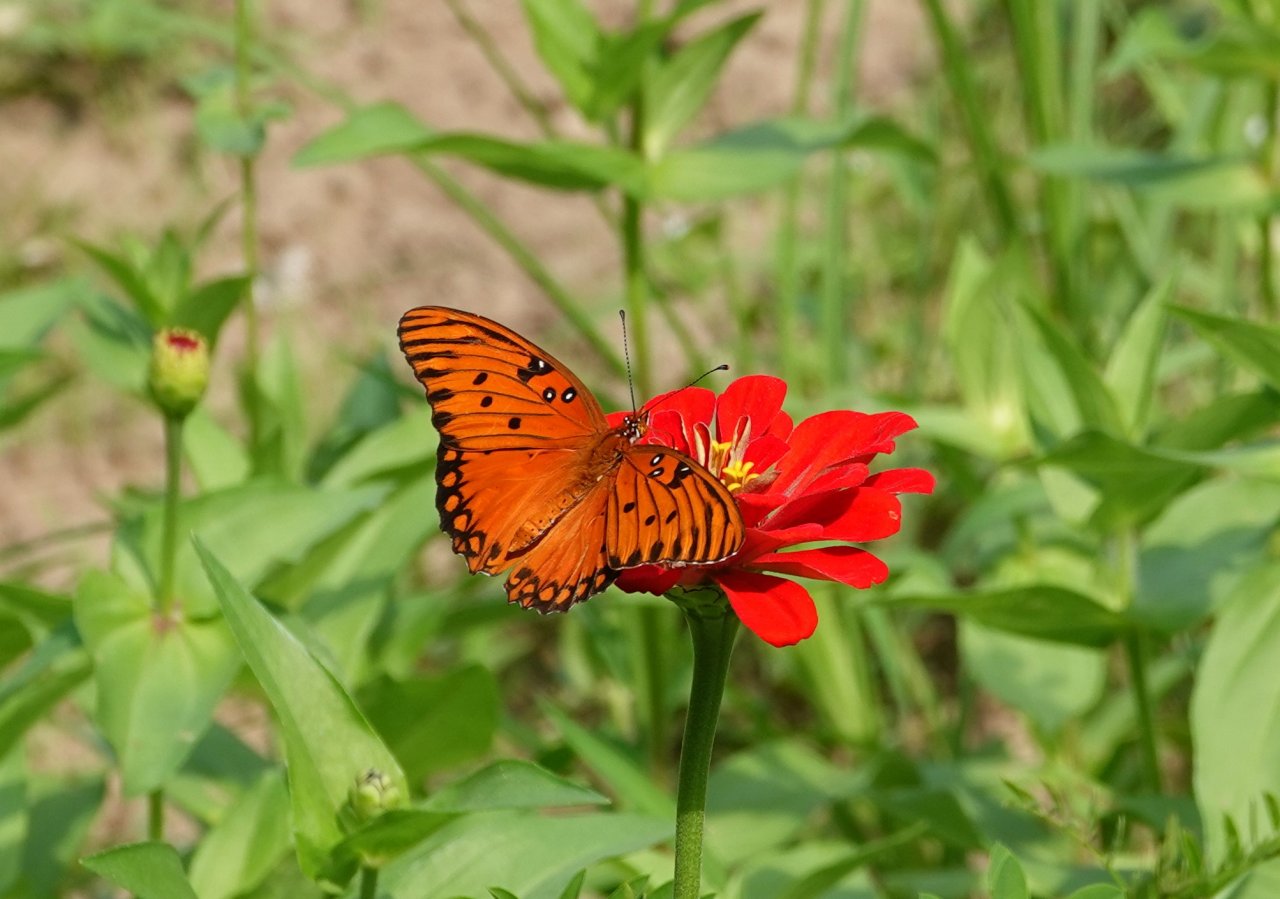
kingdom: Animalia
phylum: Arthropoda
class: Insecta
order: Lepidoptera
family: Nymphalidae
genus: Dione
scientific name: Dione vanillae
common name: Gulf Fritillary
